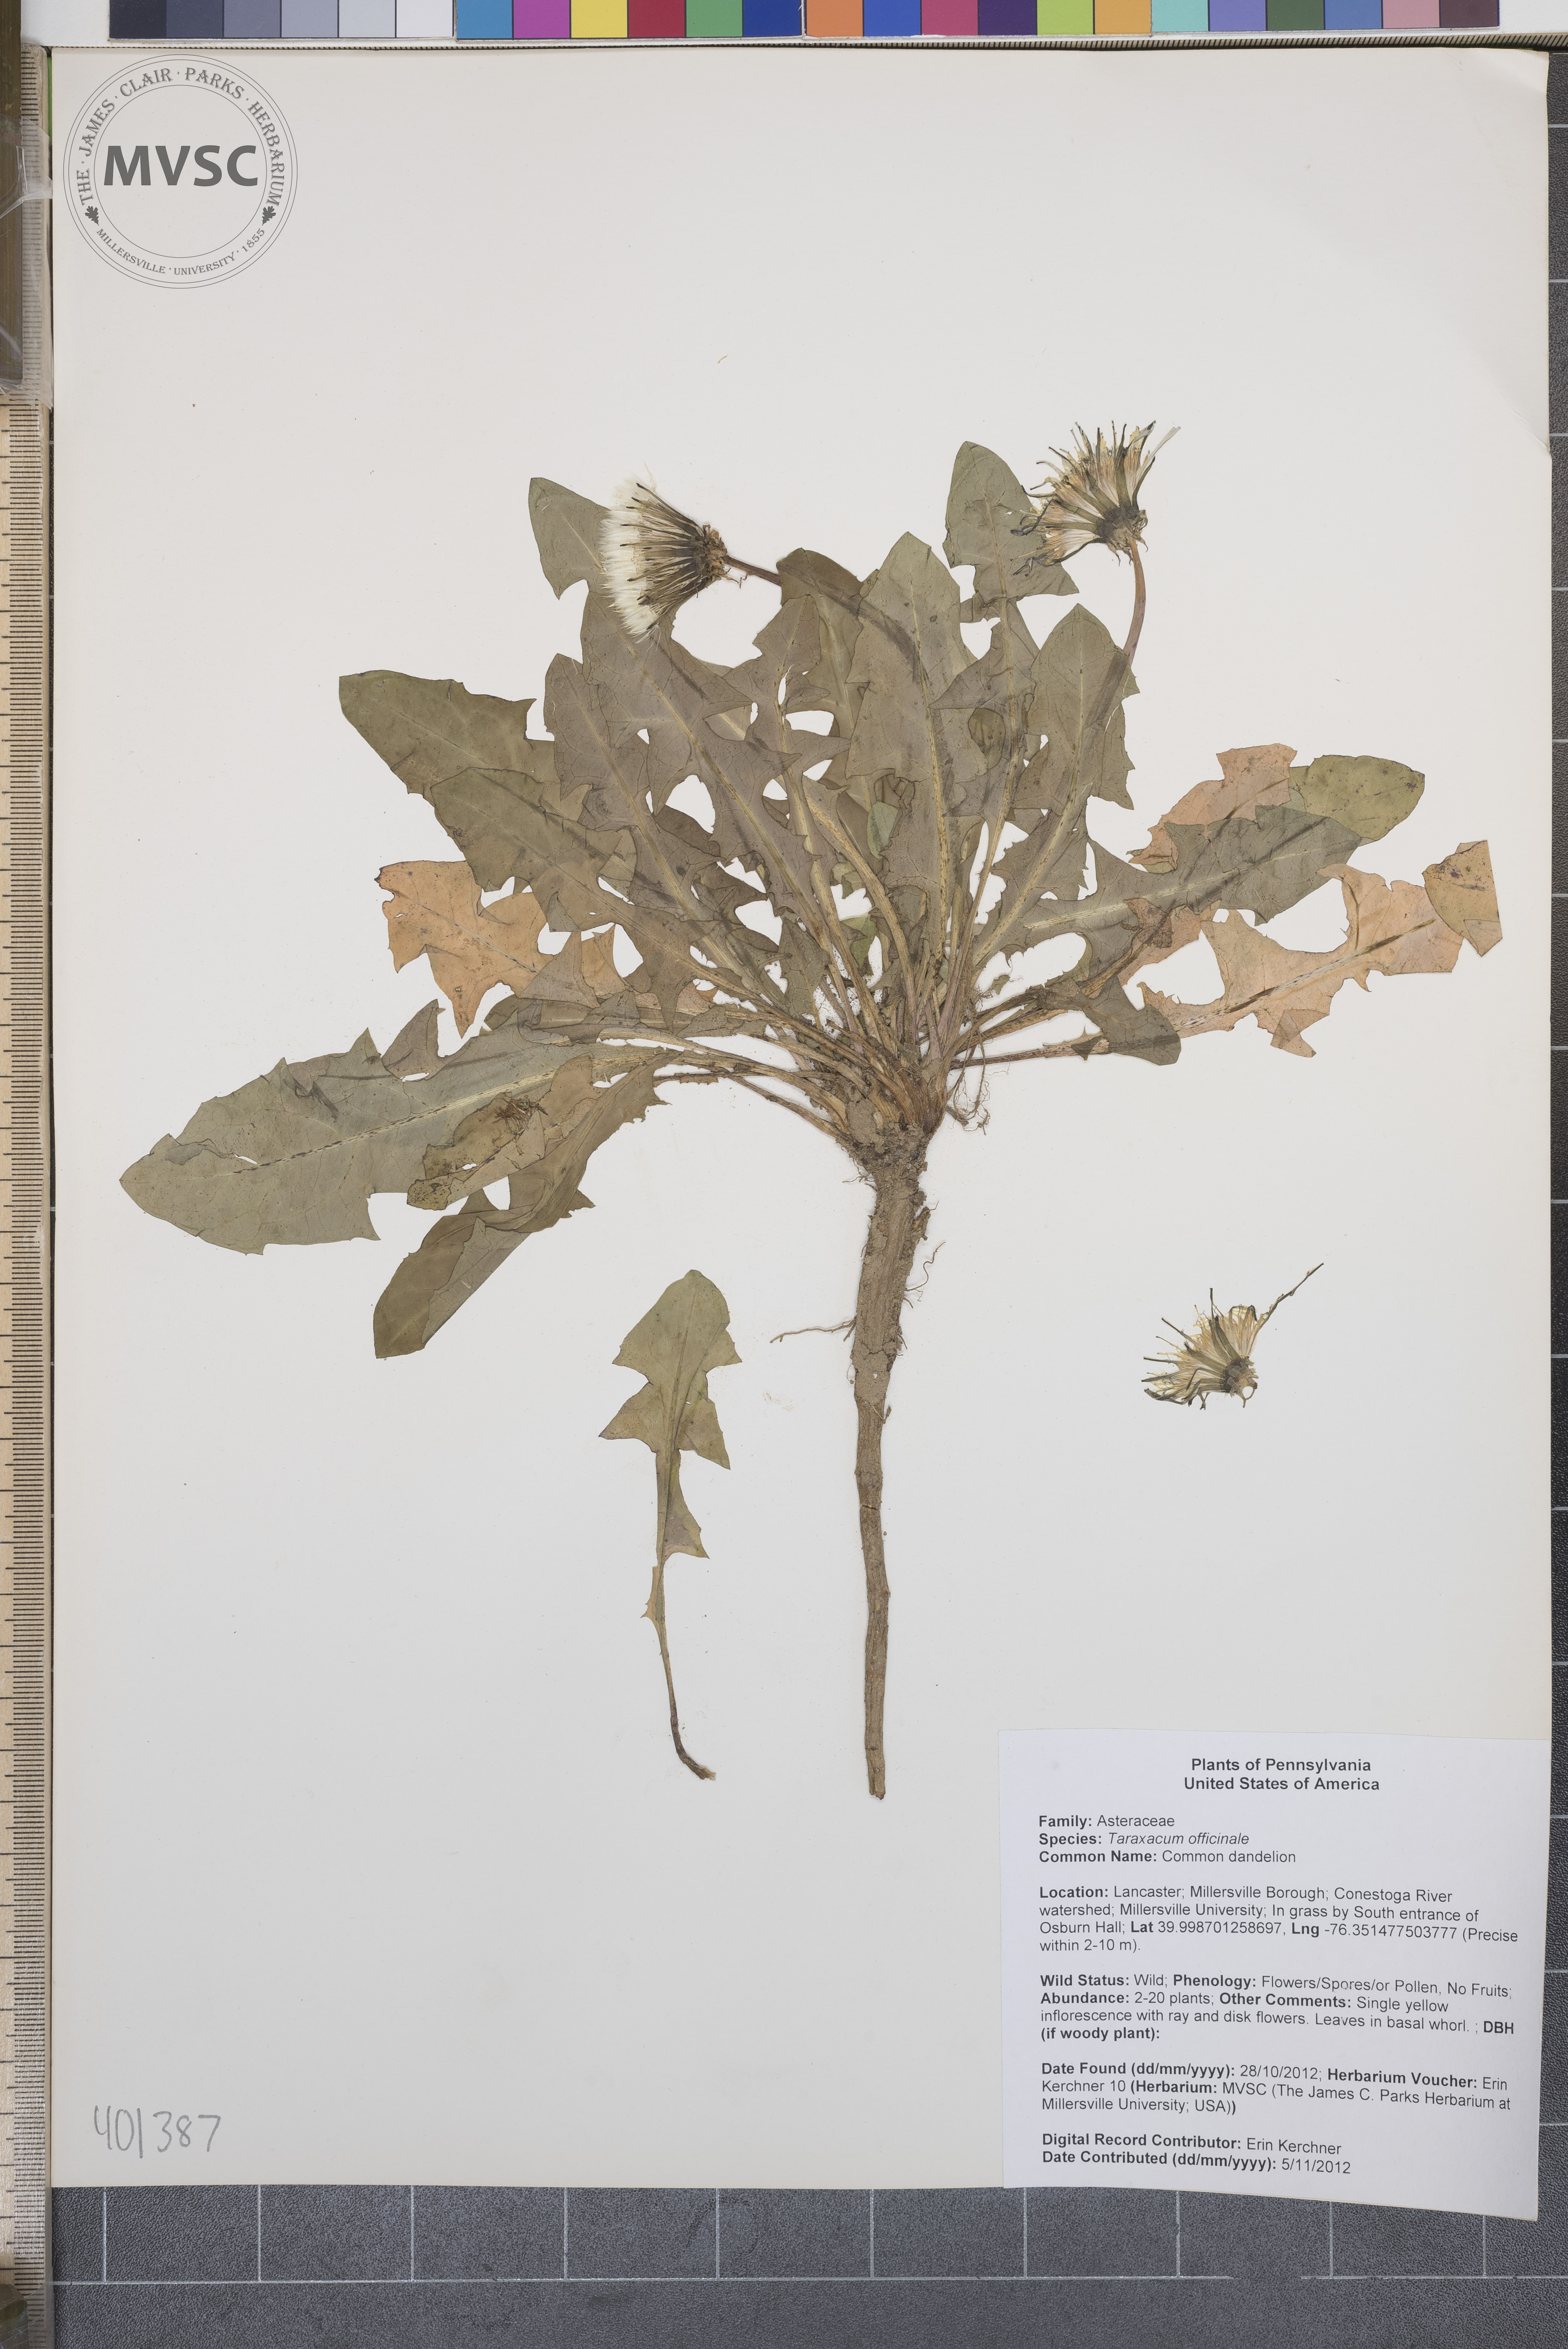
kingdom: Plantae
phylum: Tracheophyta
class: Magnoliopsida
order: Asterales
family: Asteraceae
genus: Taraxacum
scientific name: Taraxacum officinale
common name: Common dandelion
